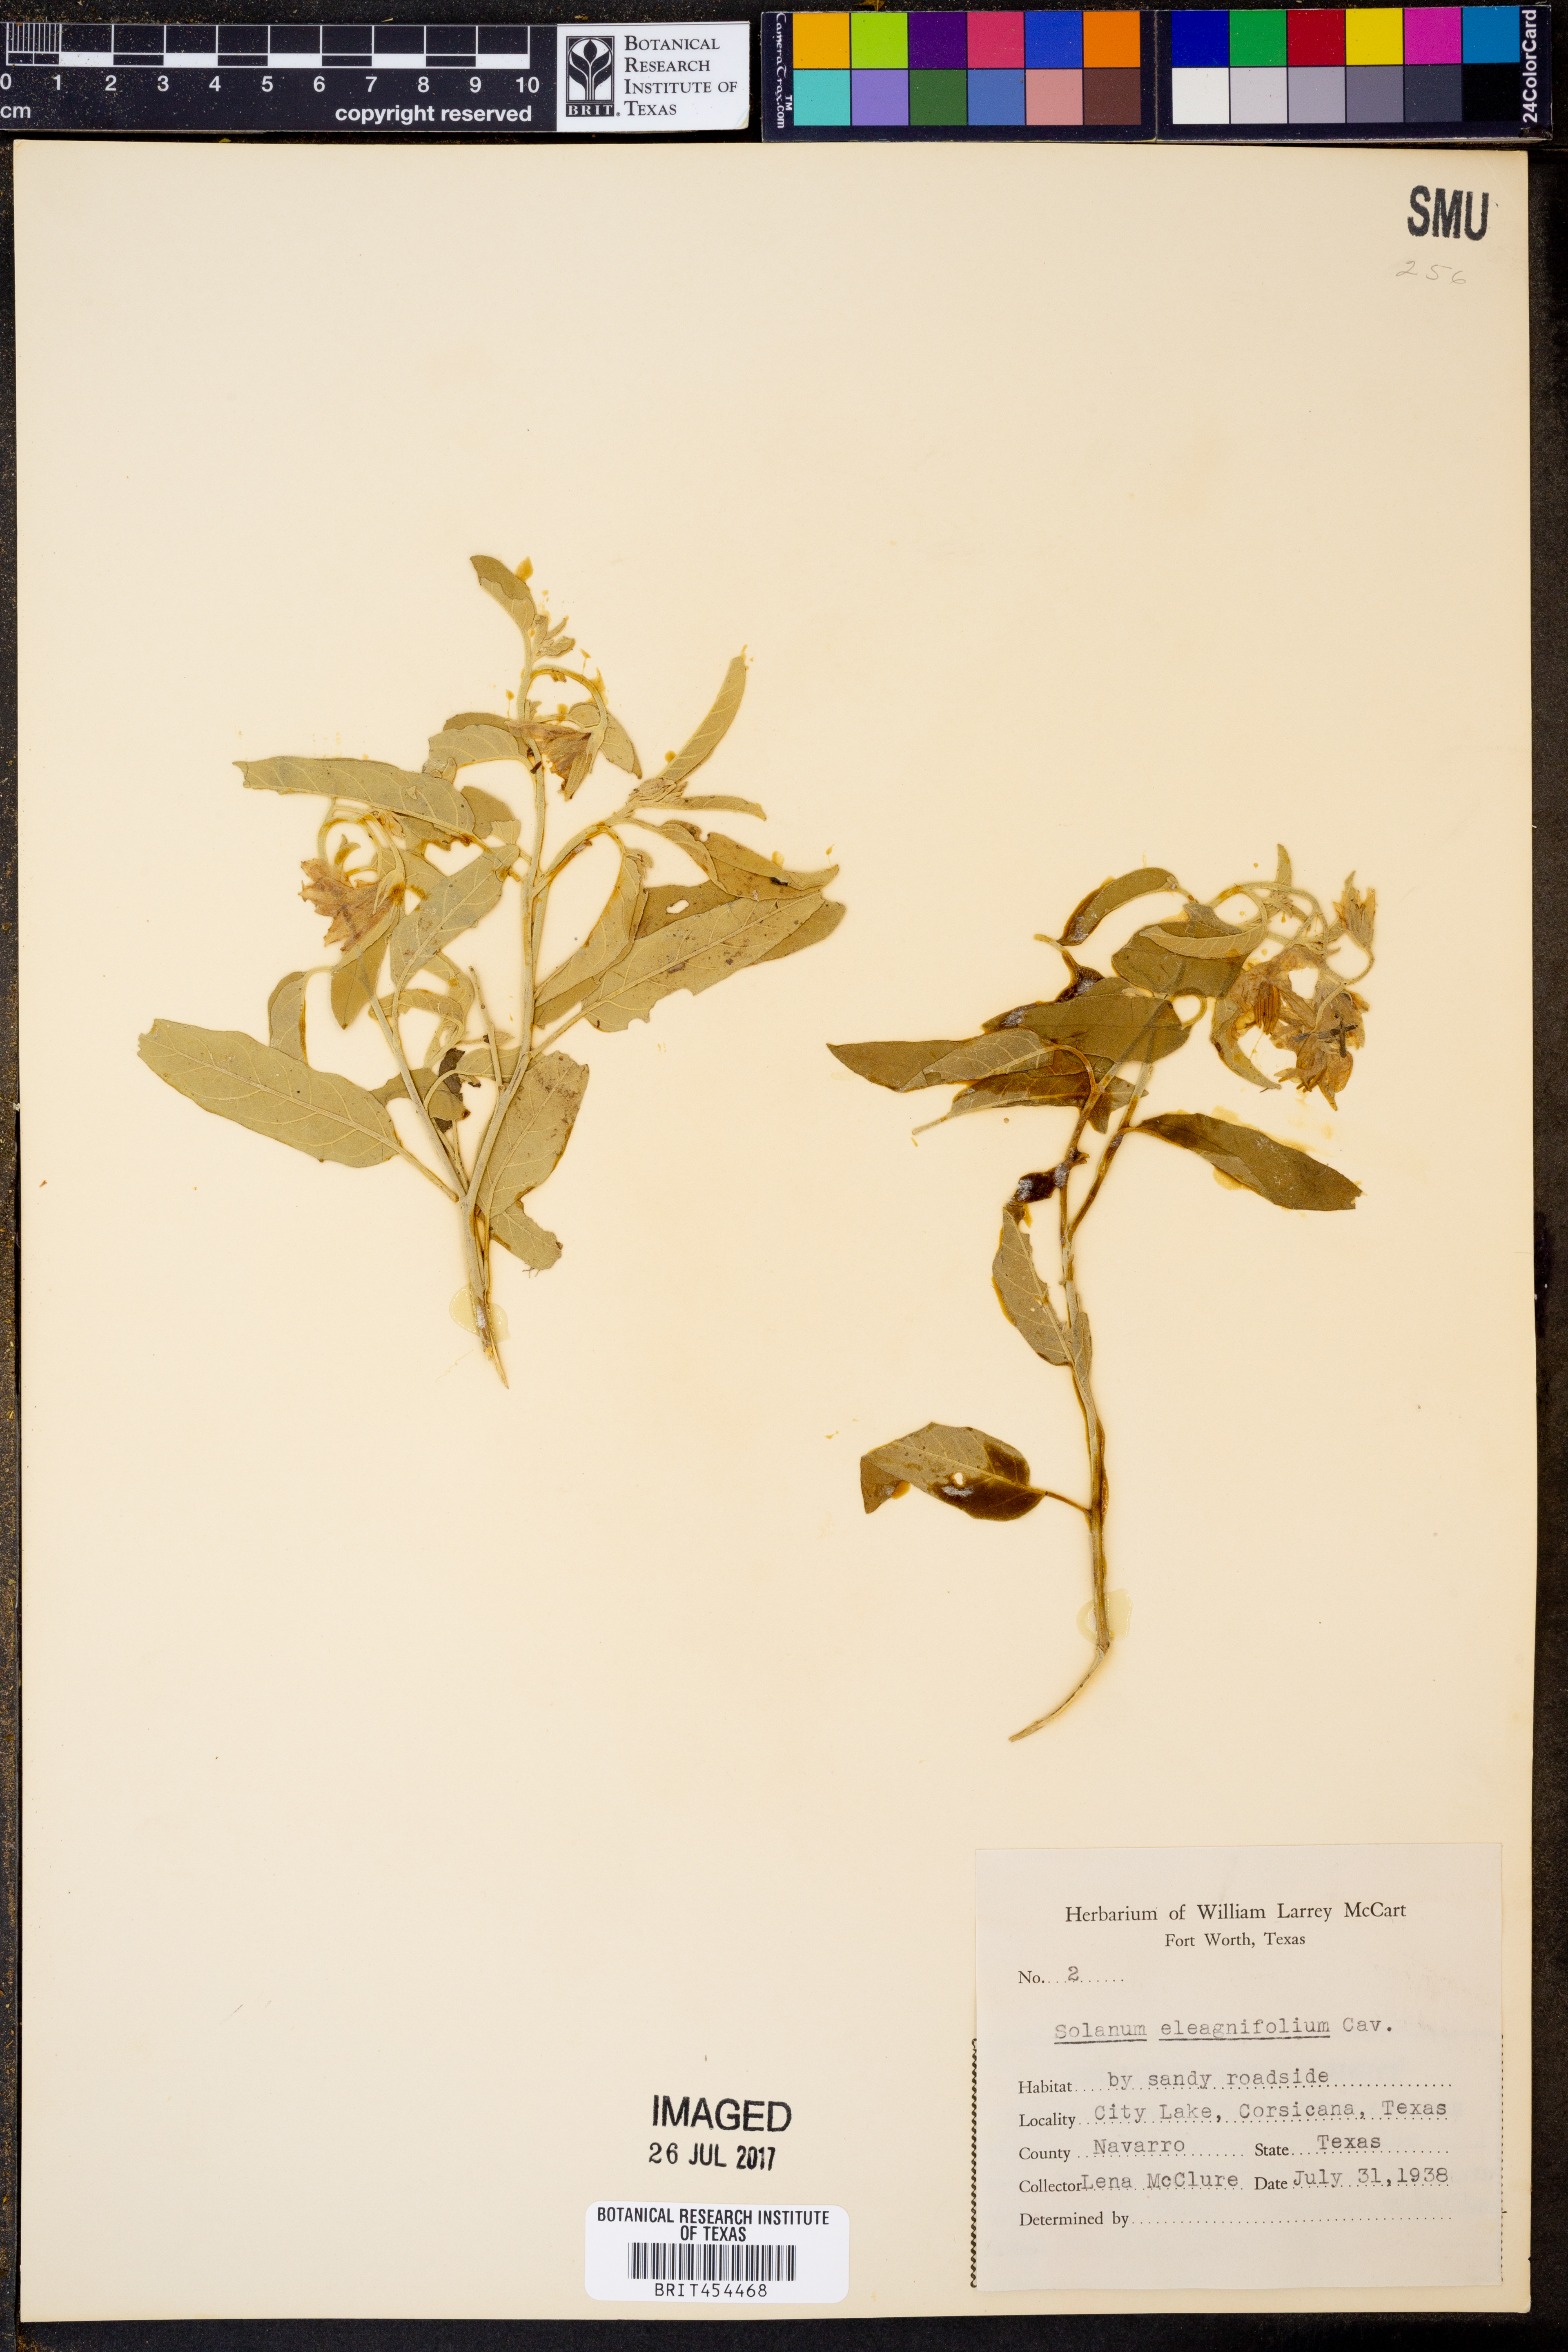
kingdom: Plantae
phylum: Tracheophyta
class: Magnoliopsida
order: Solanales
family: Solanaceae
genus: Solanum
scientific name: Solanum elaeagnifolium
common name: Silverleaf nightshade
